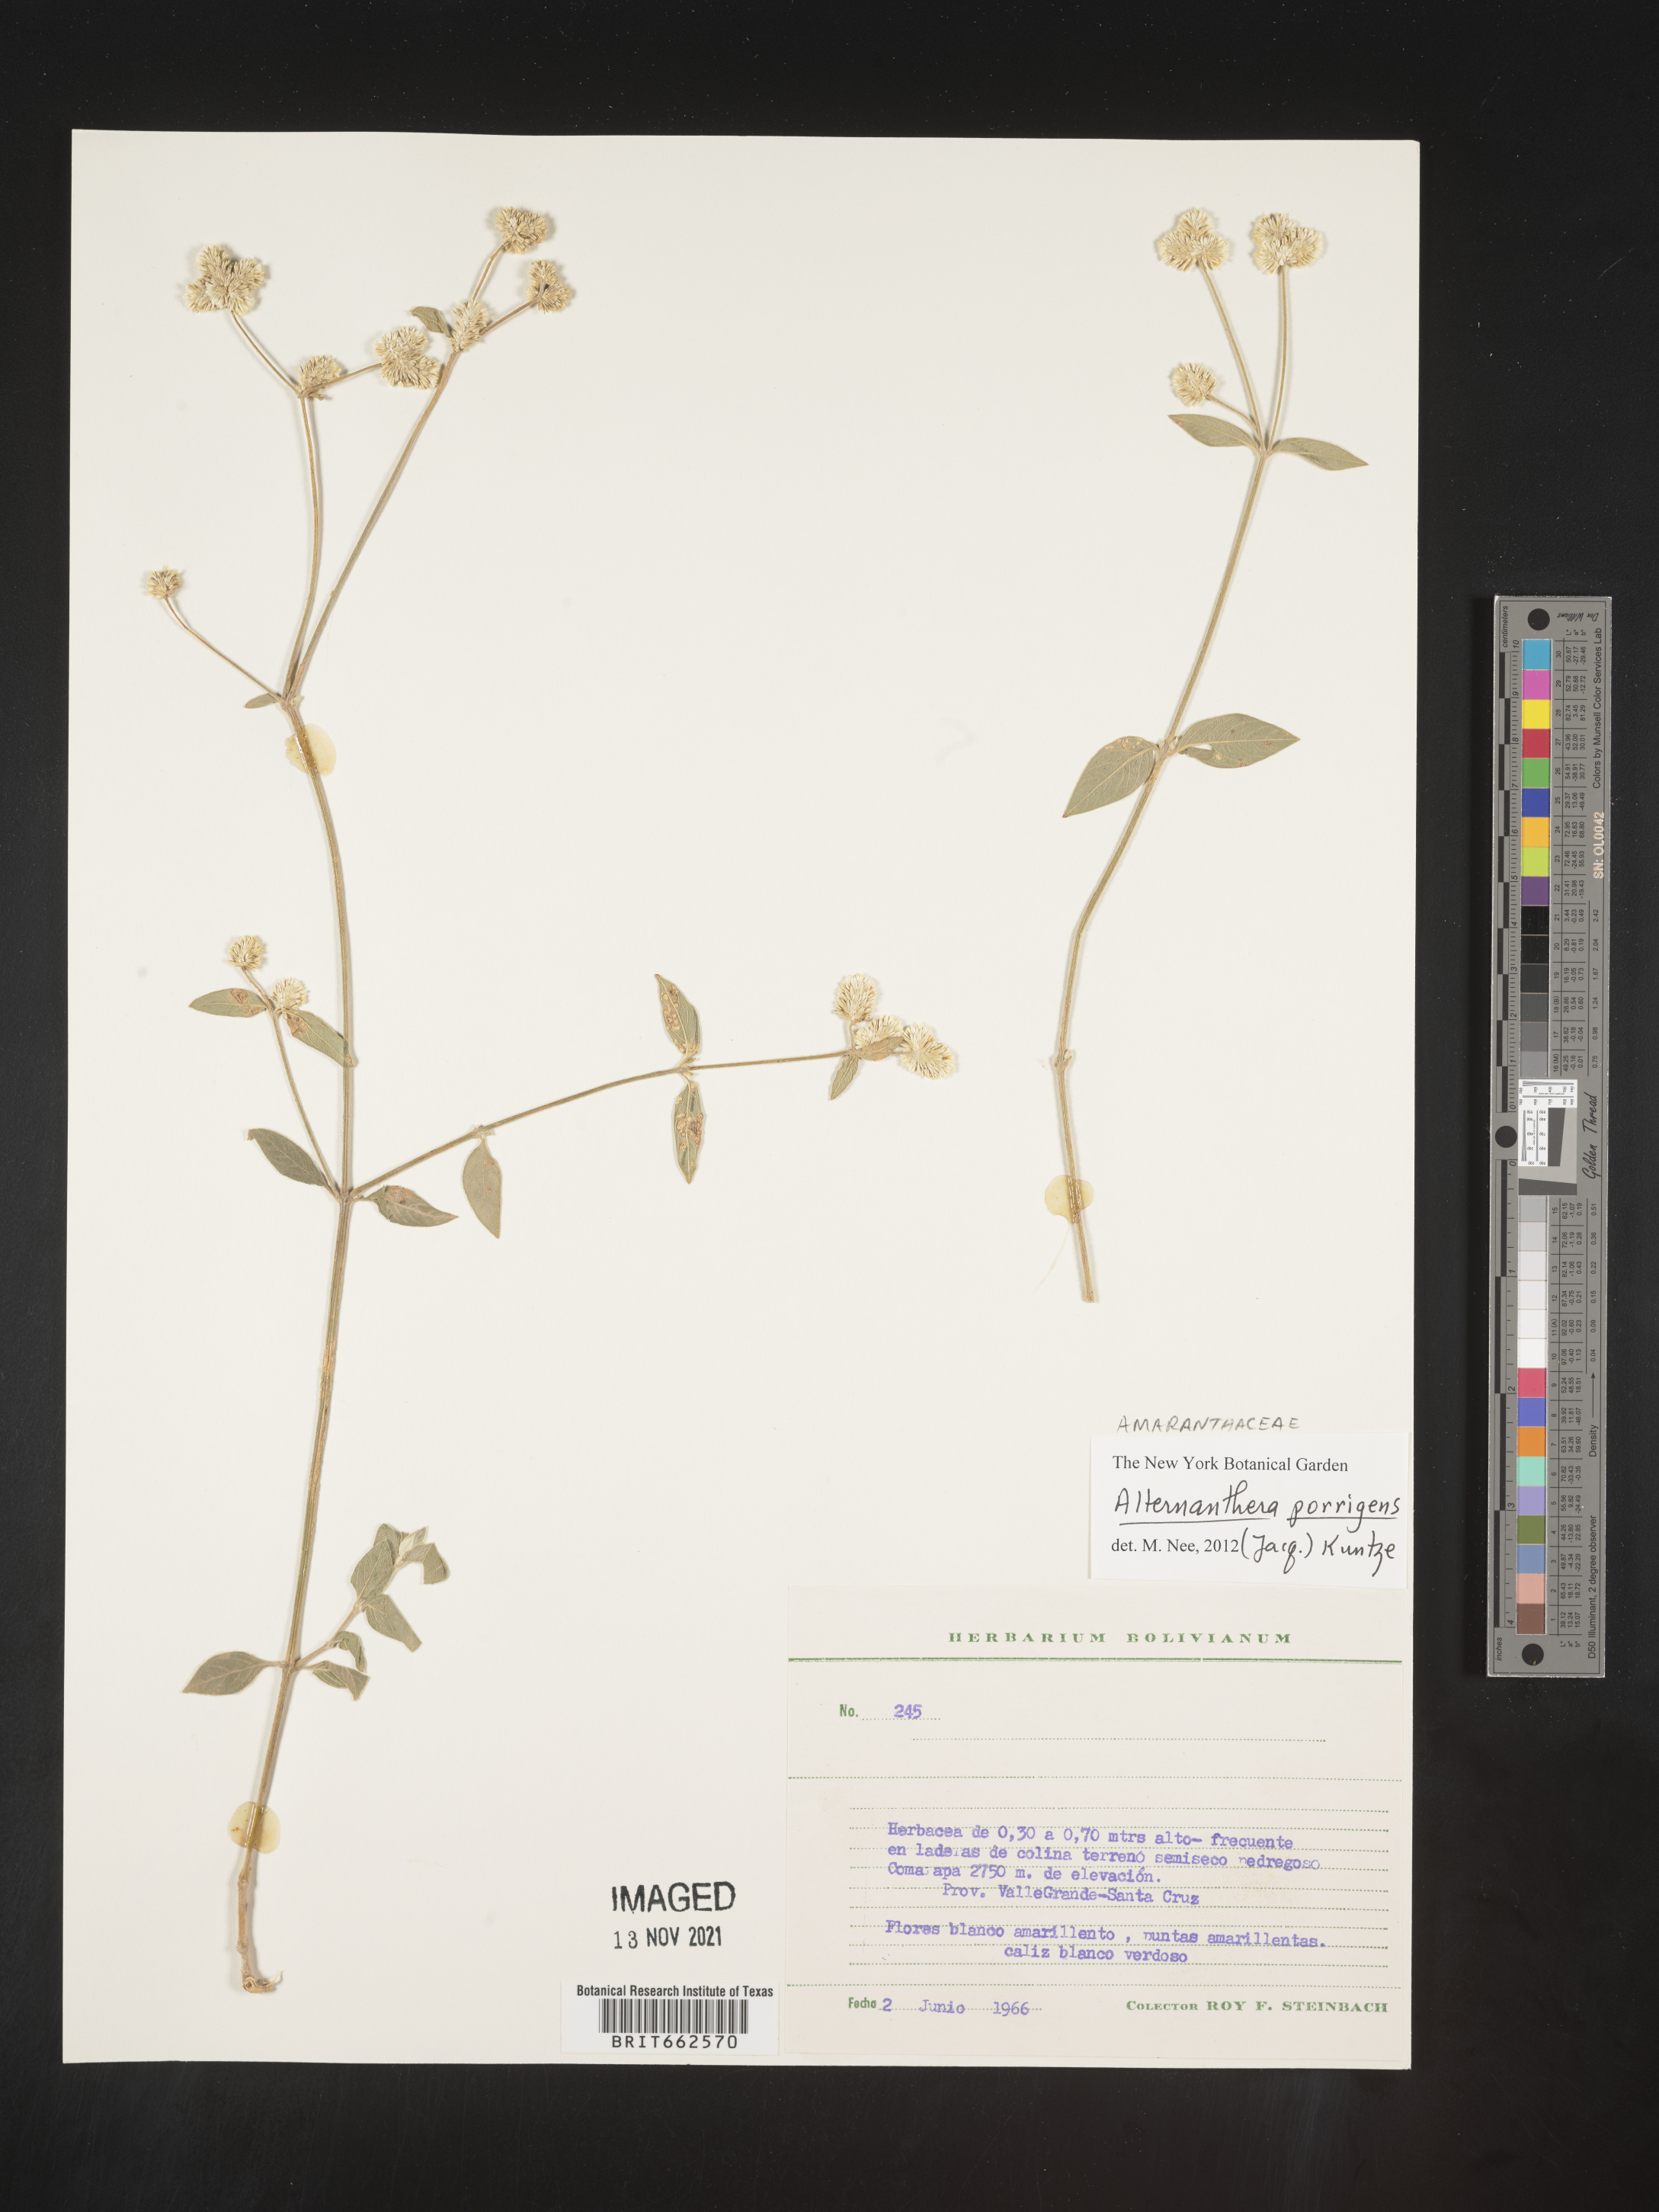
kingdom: Plantae
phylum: Tracheophyta
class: Magnoliopsida
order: Caryophyllales
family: Amaranthaceae
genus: Alternanthera
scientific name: Alternanthera
